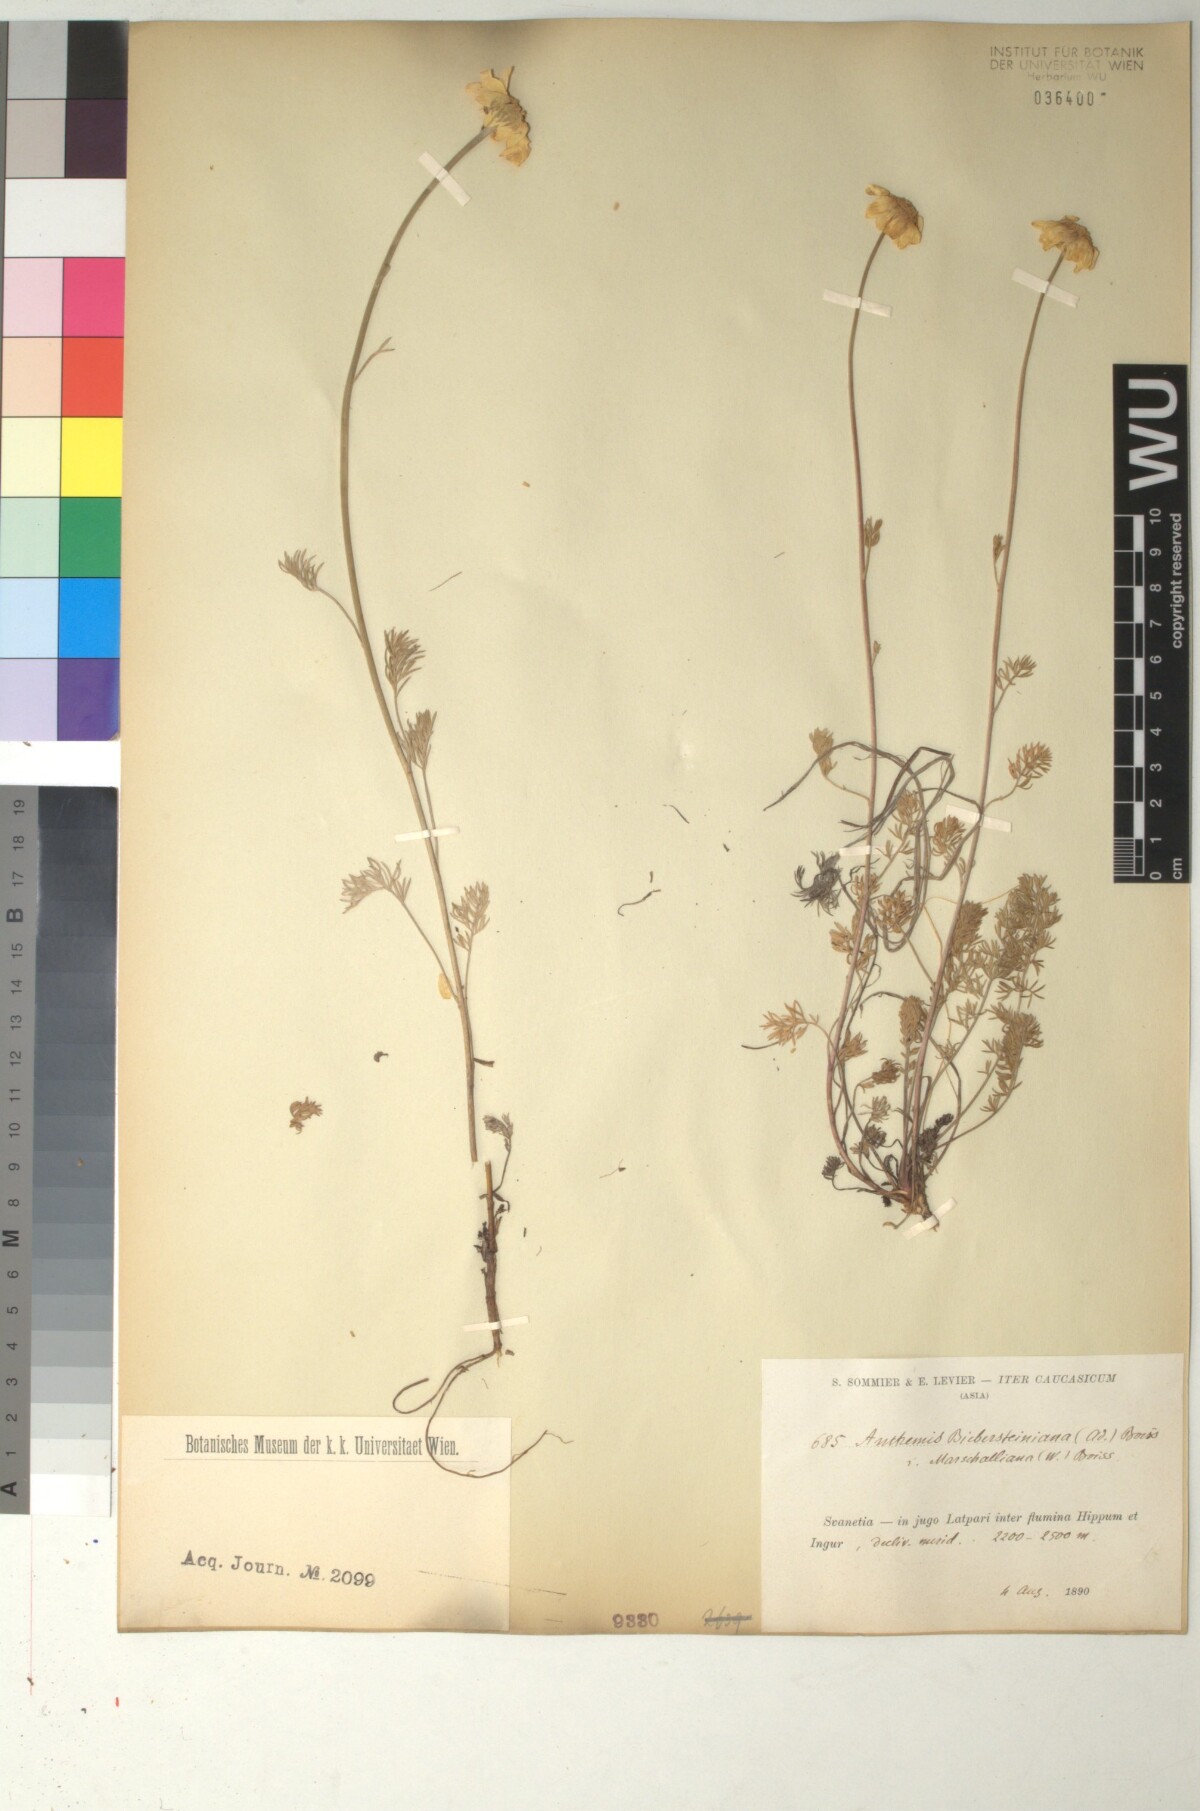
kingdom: Plantae
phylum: Tracheophyta
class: Magnoliopsida
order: Asterales
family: Asteraceae
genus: Archanthemis
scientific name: Archanthemis marschalliana
